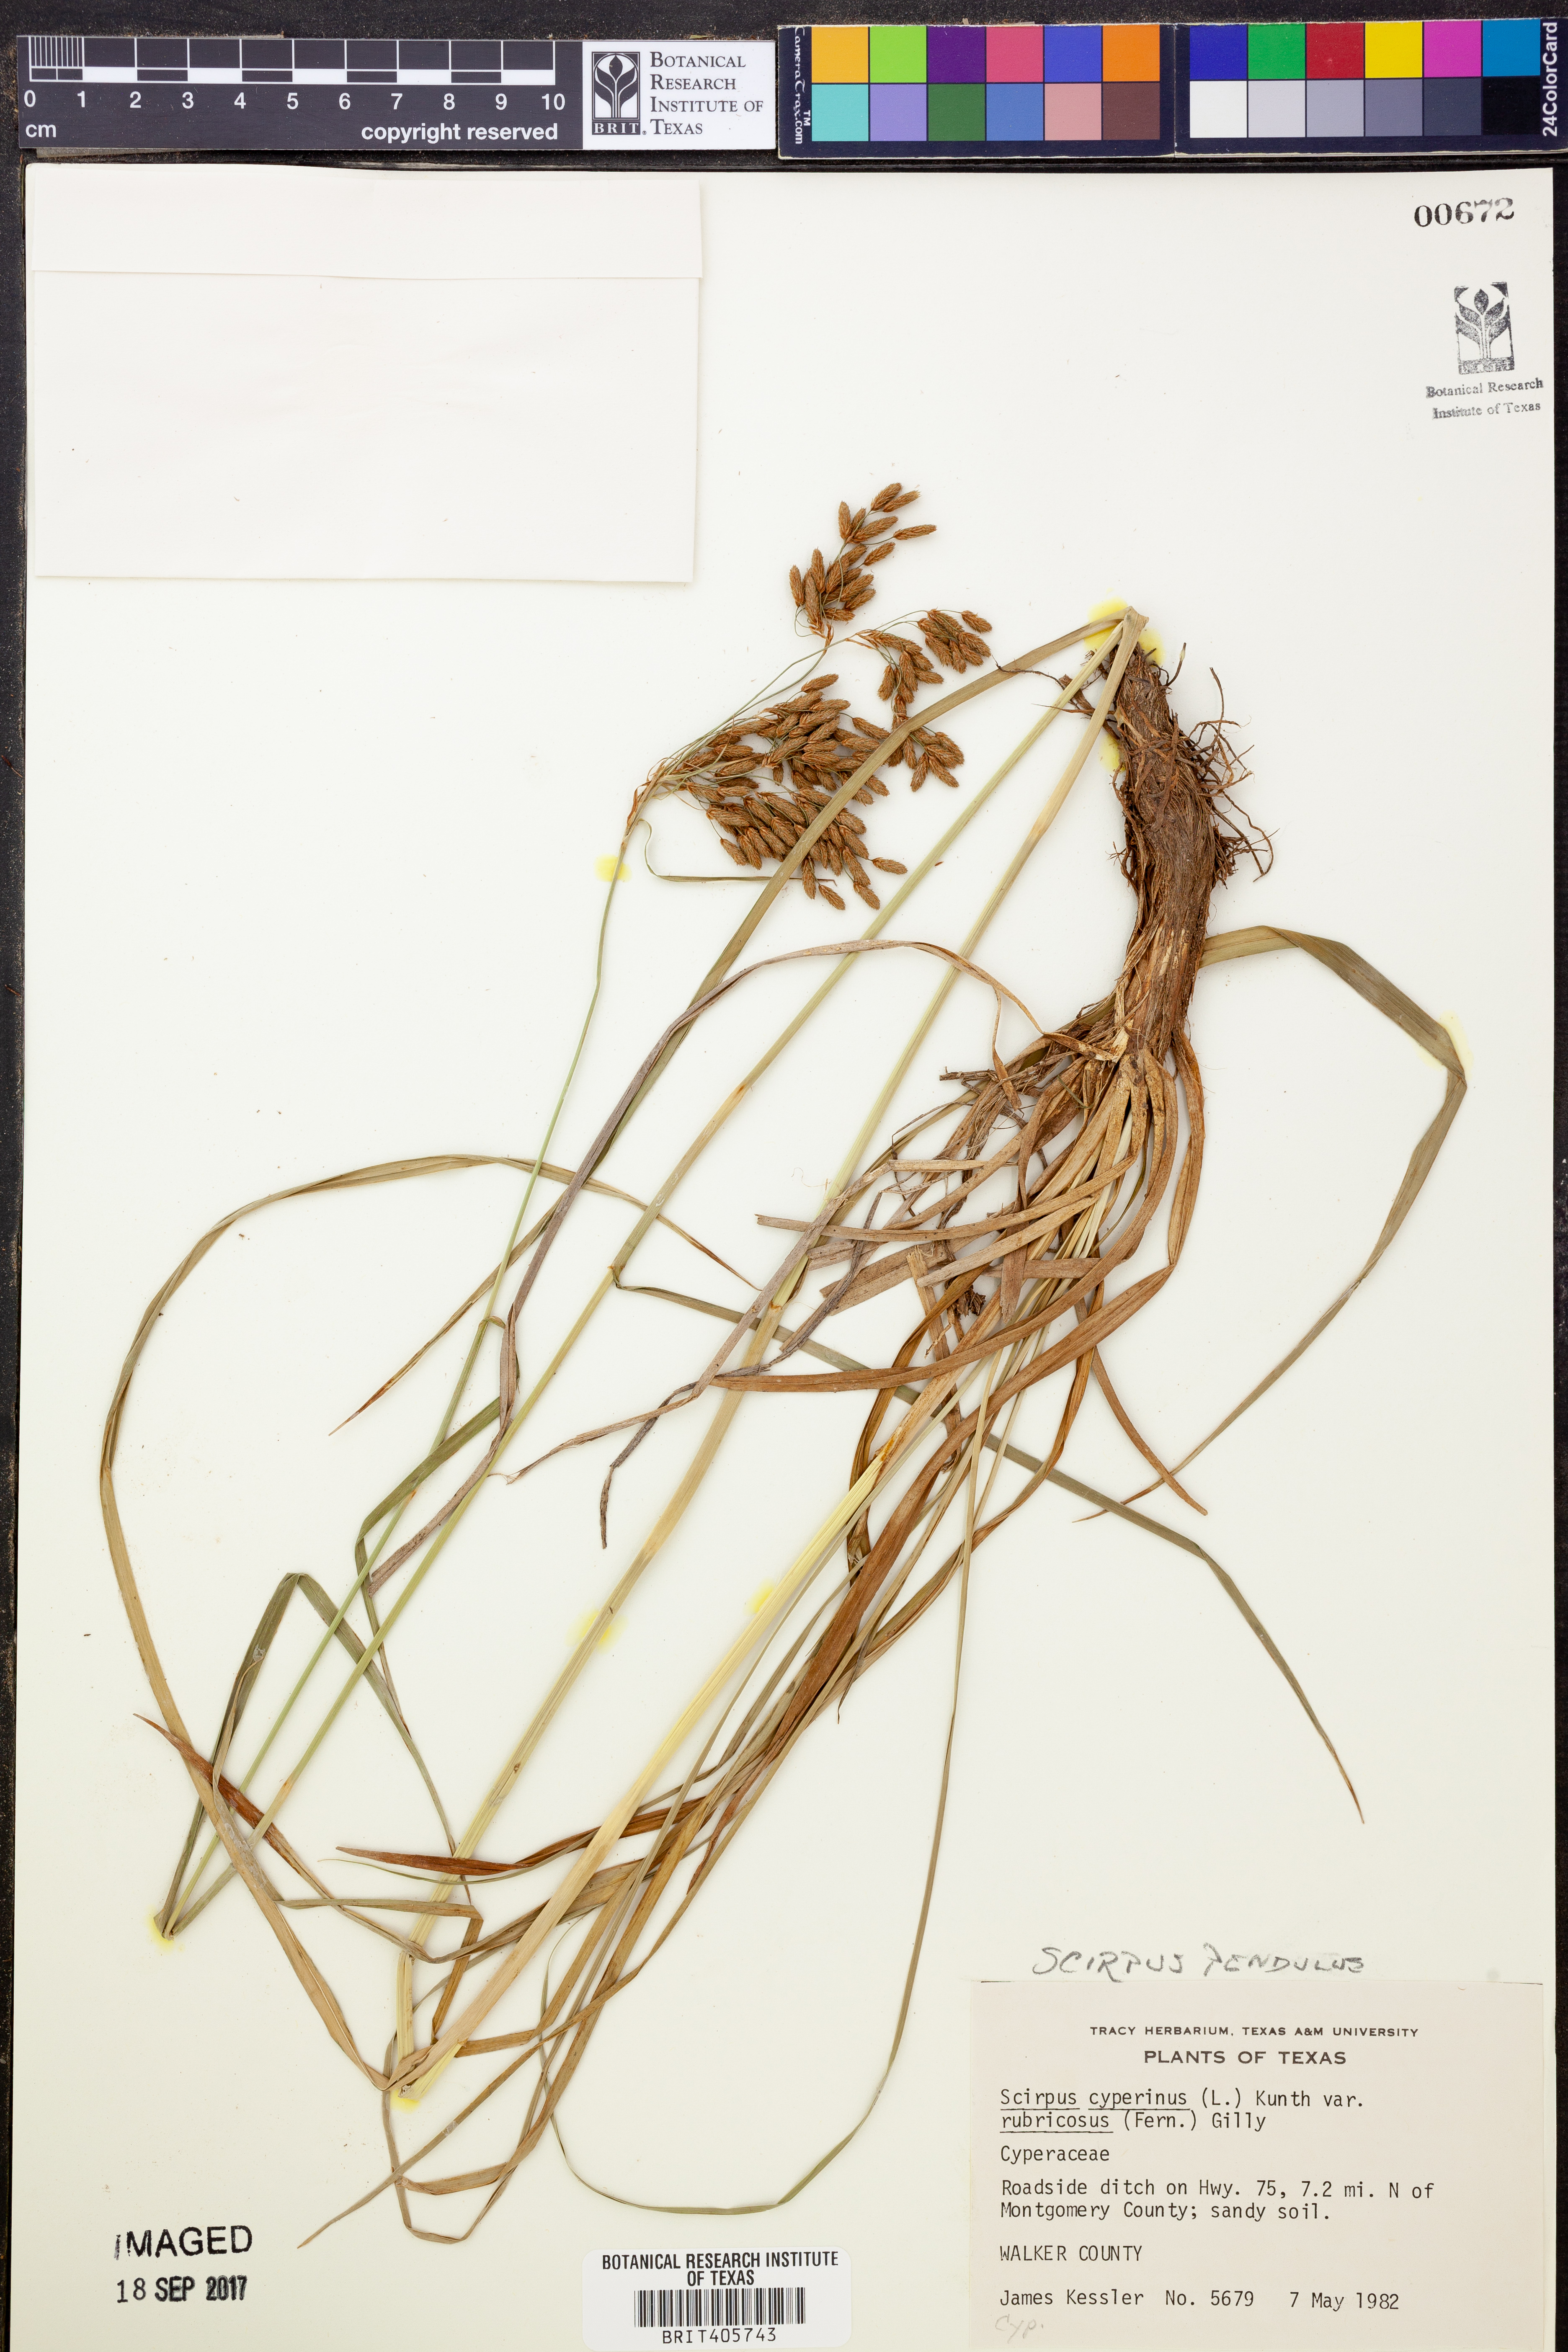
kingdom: Plantae
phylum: Tracheophyta
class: Liliopsida
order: Poales
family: Cyperaceae
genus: Scirpus
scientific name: Scirpus pendulus
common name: Nodding bulrush
